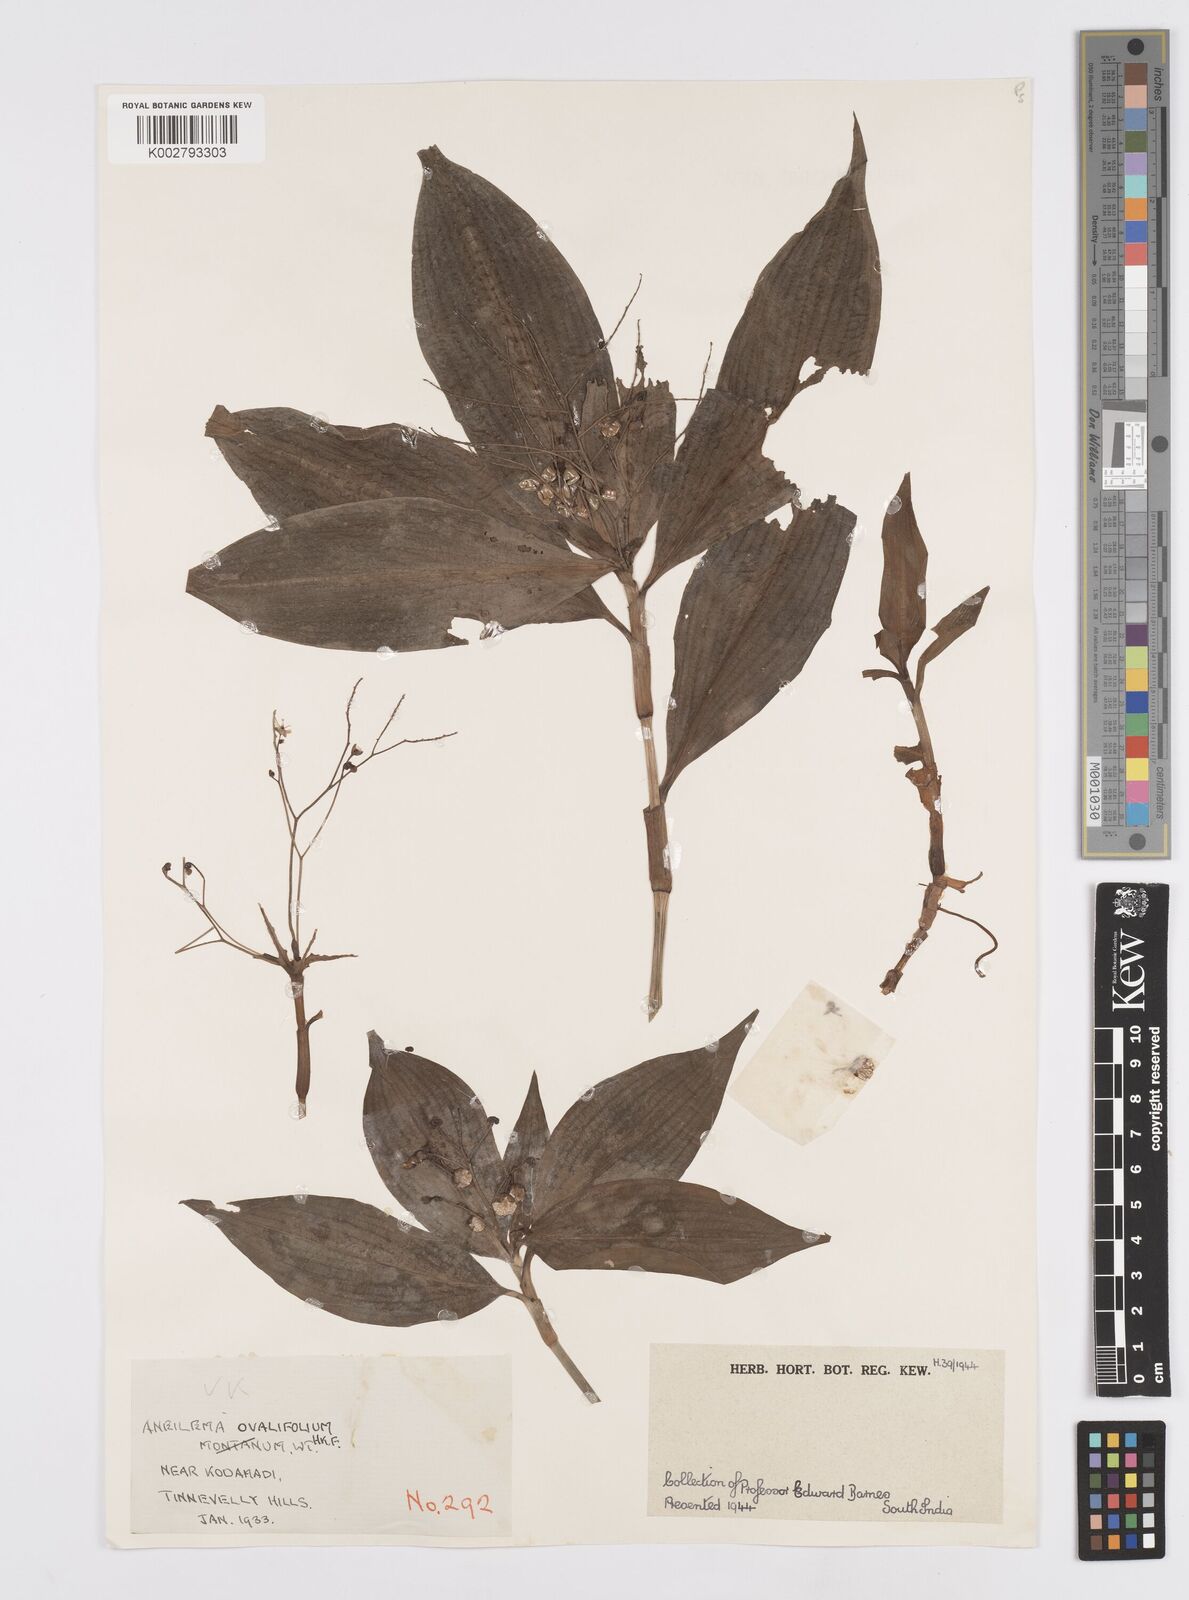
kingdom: Plantae
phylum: Tracheophyta
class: Liliopsida
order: Commelinales
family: Commelinaceae
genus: Murdannia
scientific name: Murdannia
